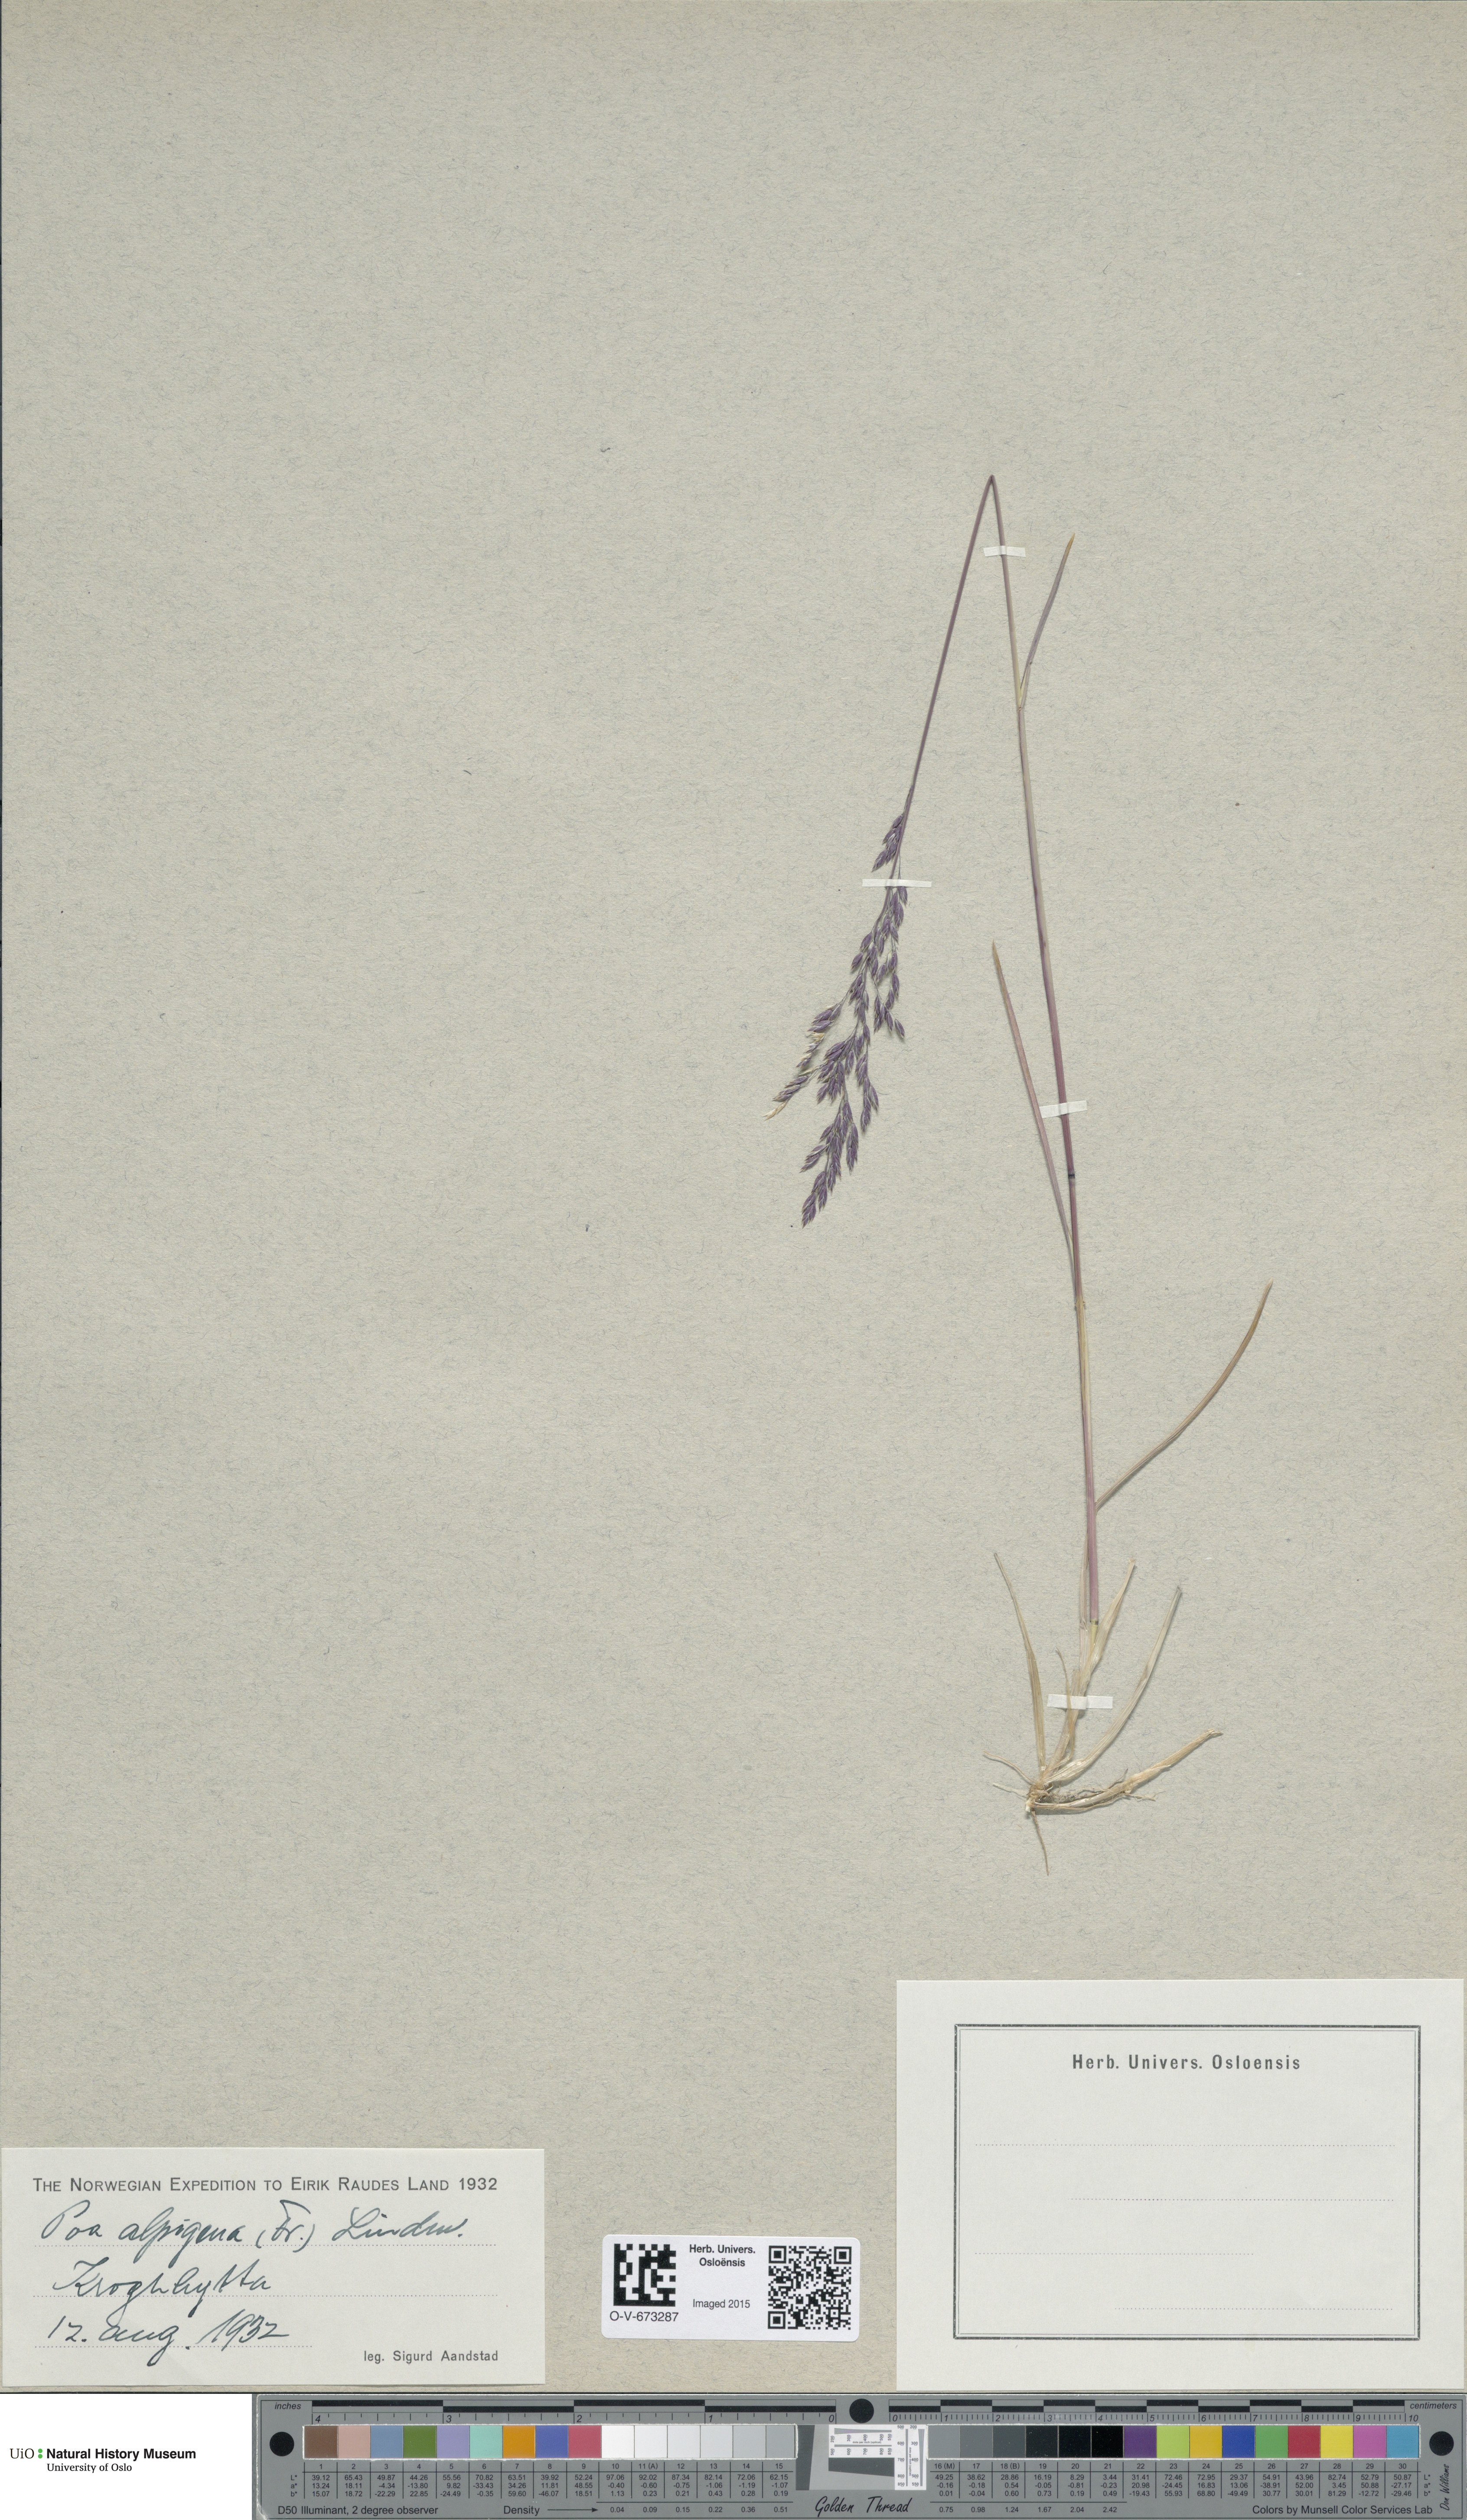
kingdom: Plantae
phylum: Tracheophyta
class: Liliopsida
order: Poales
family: Poaceae
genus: Poa
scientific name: Poa alpigena
